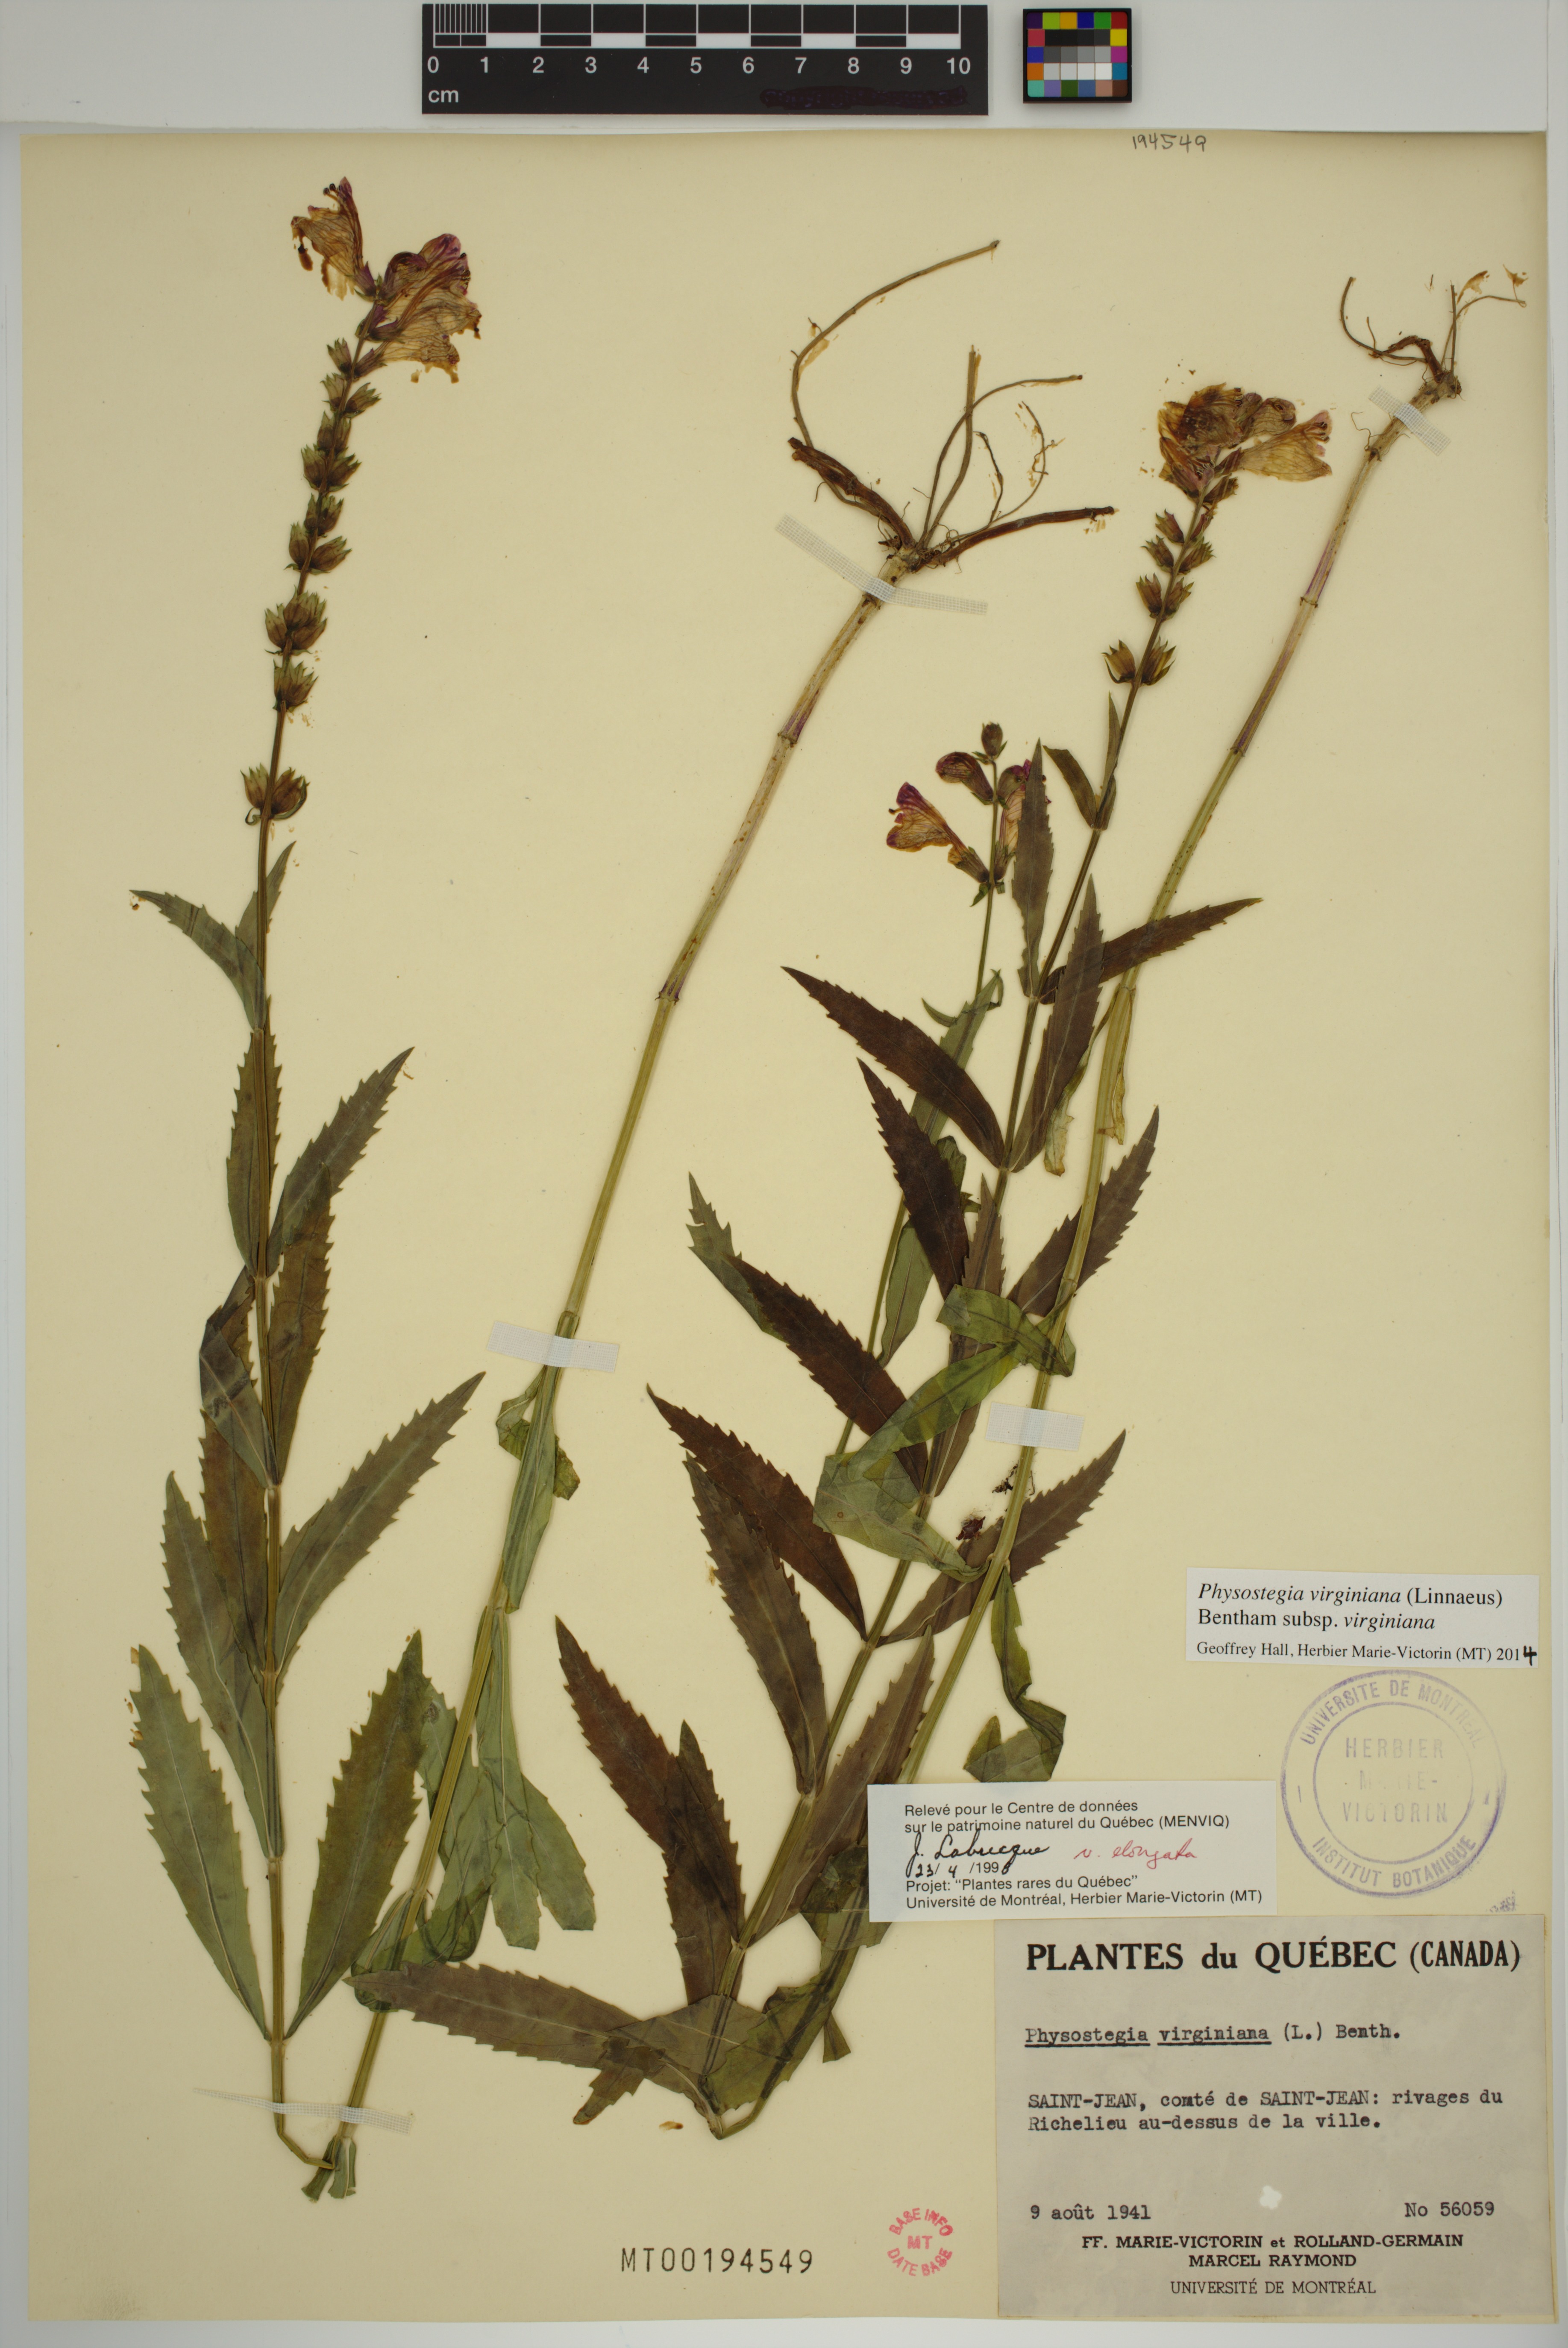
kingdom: Plantae
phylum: Tracheophyta
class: Magnoliopsida
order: Lamiales
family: Lamiaceae
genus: Physostegia
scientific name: Physostegia virginiana
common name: Obedient-plant
